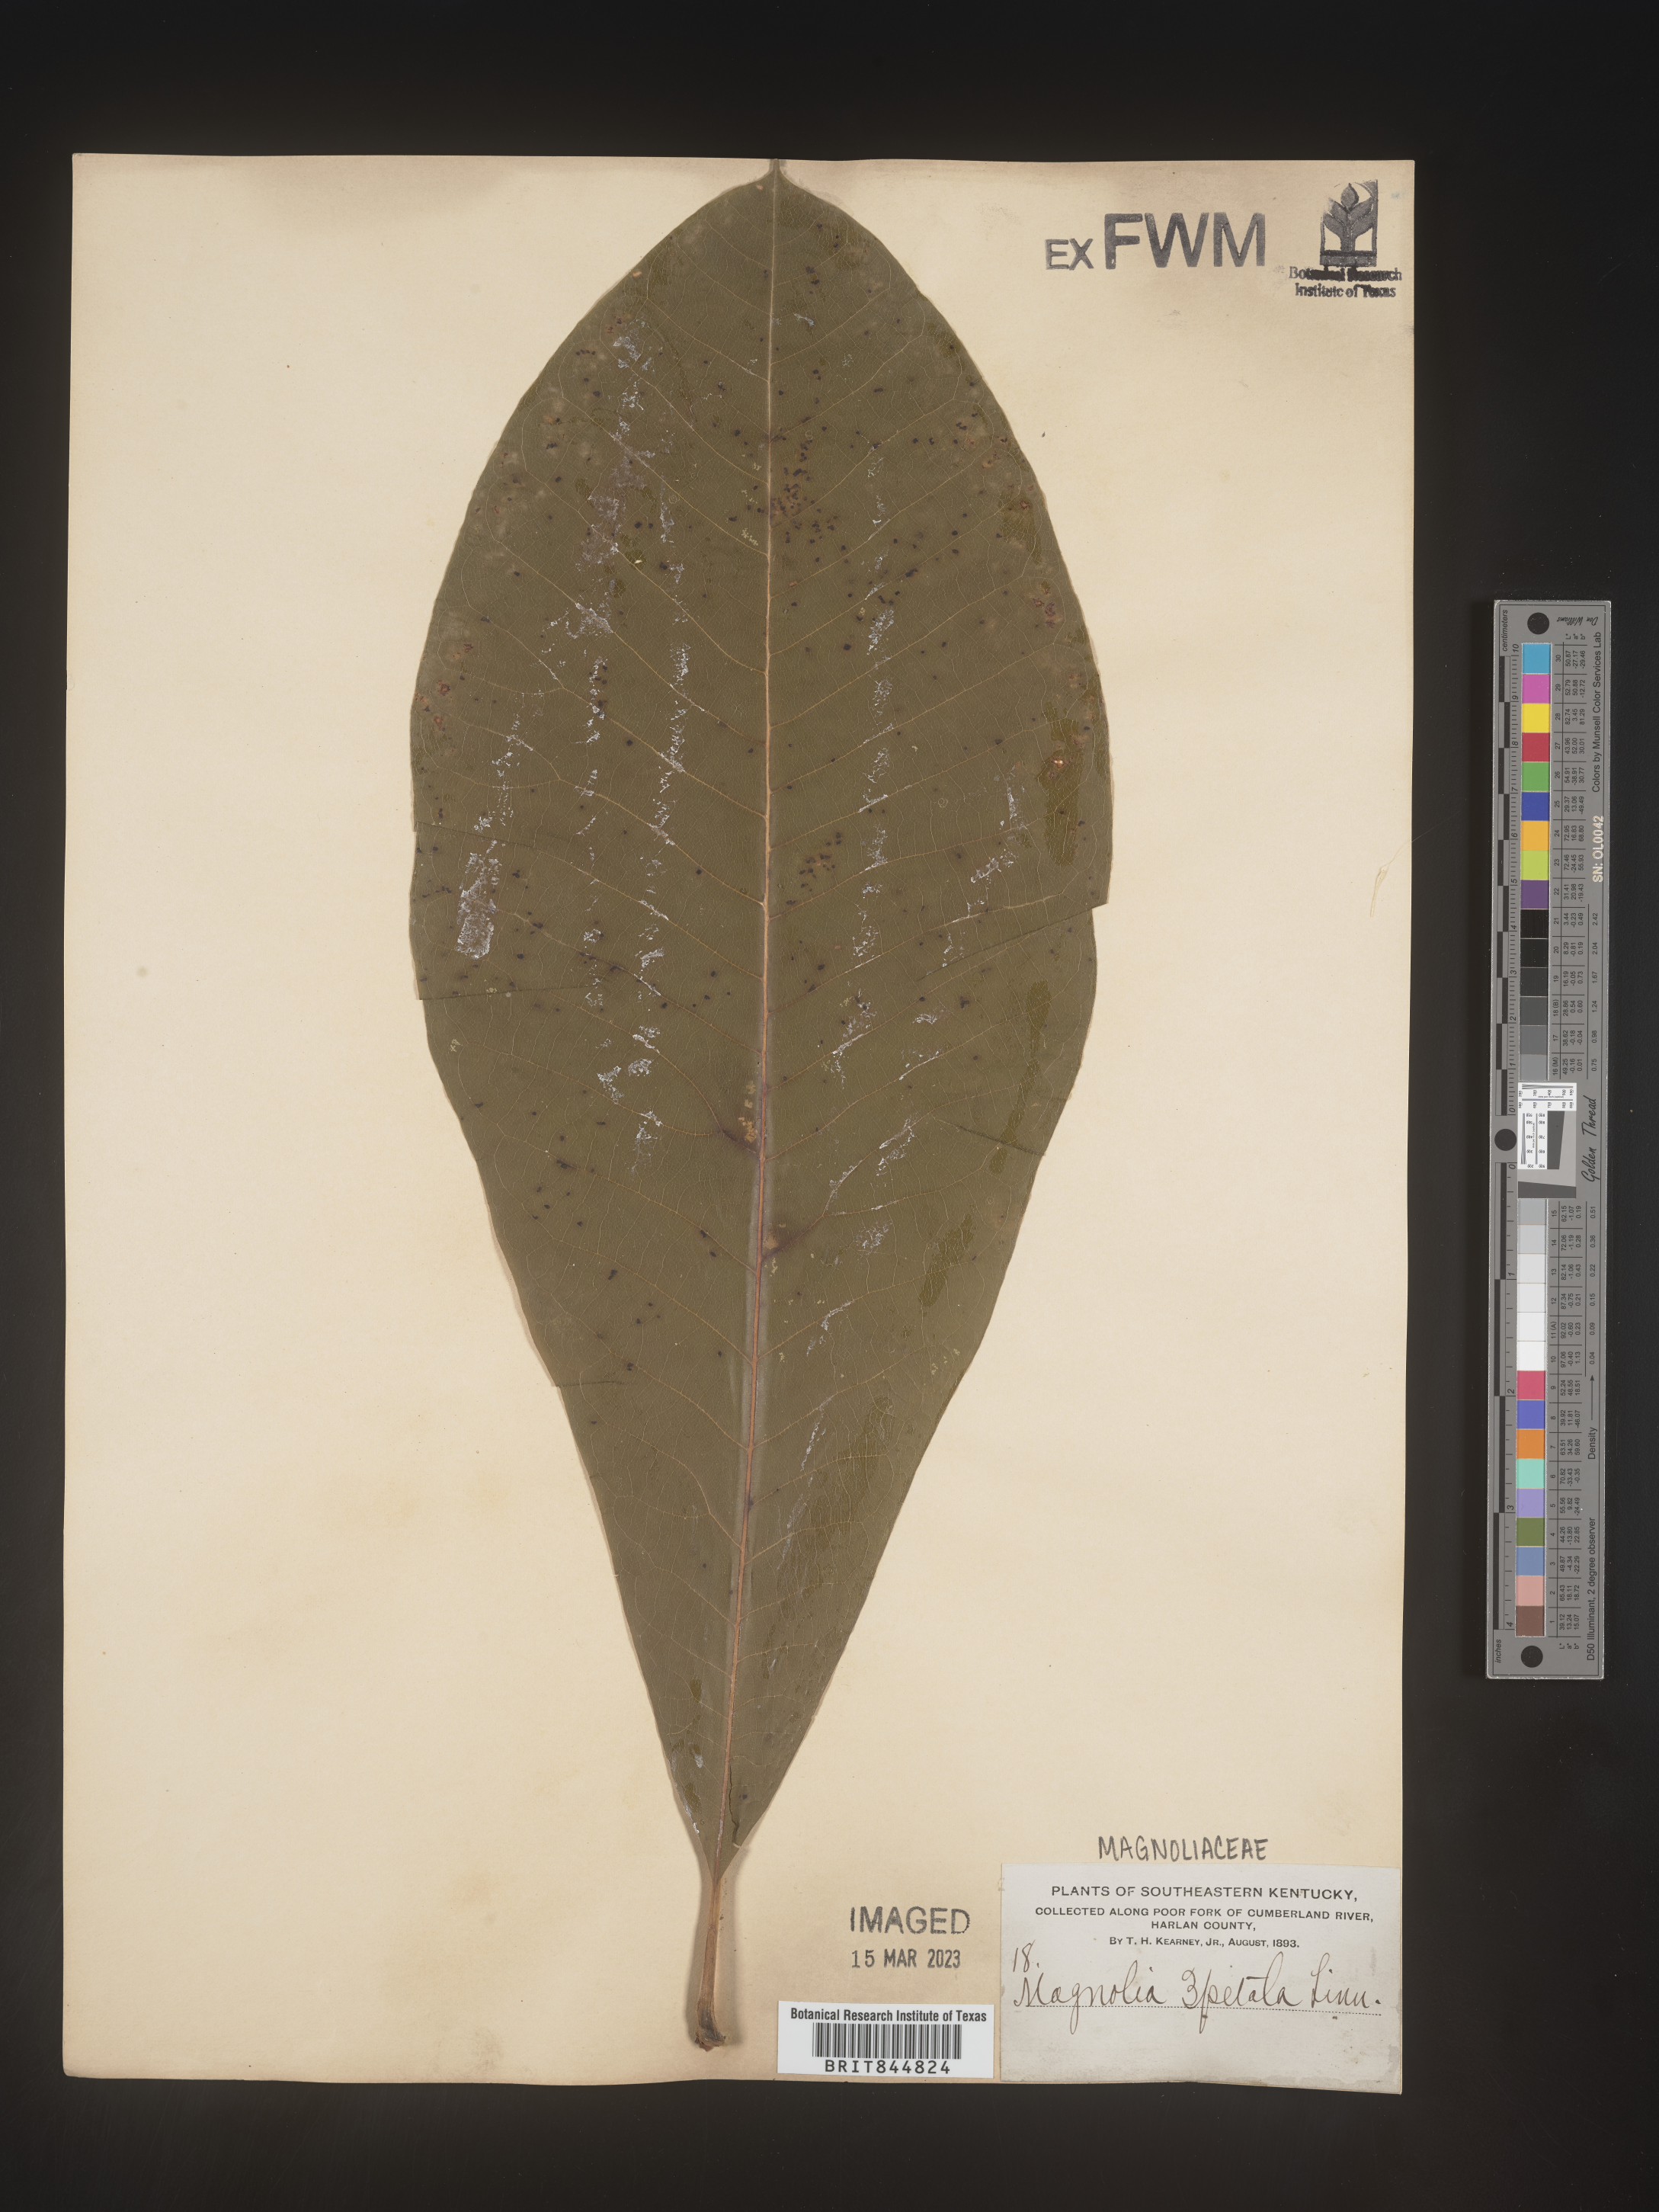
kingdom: Plantae
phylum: Tracheophyta
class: Magnoliopsida
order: Magnoliales
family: Magnoliaceae
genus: Magnolia
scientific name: Magnolia tripetala
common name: Umbrella magnolia
